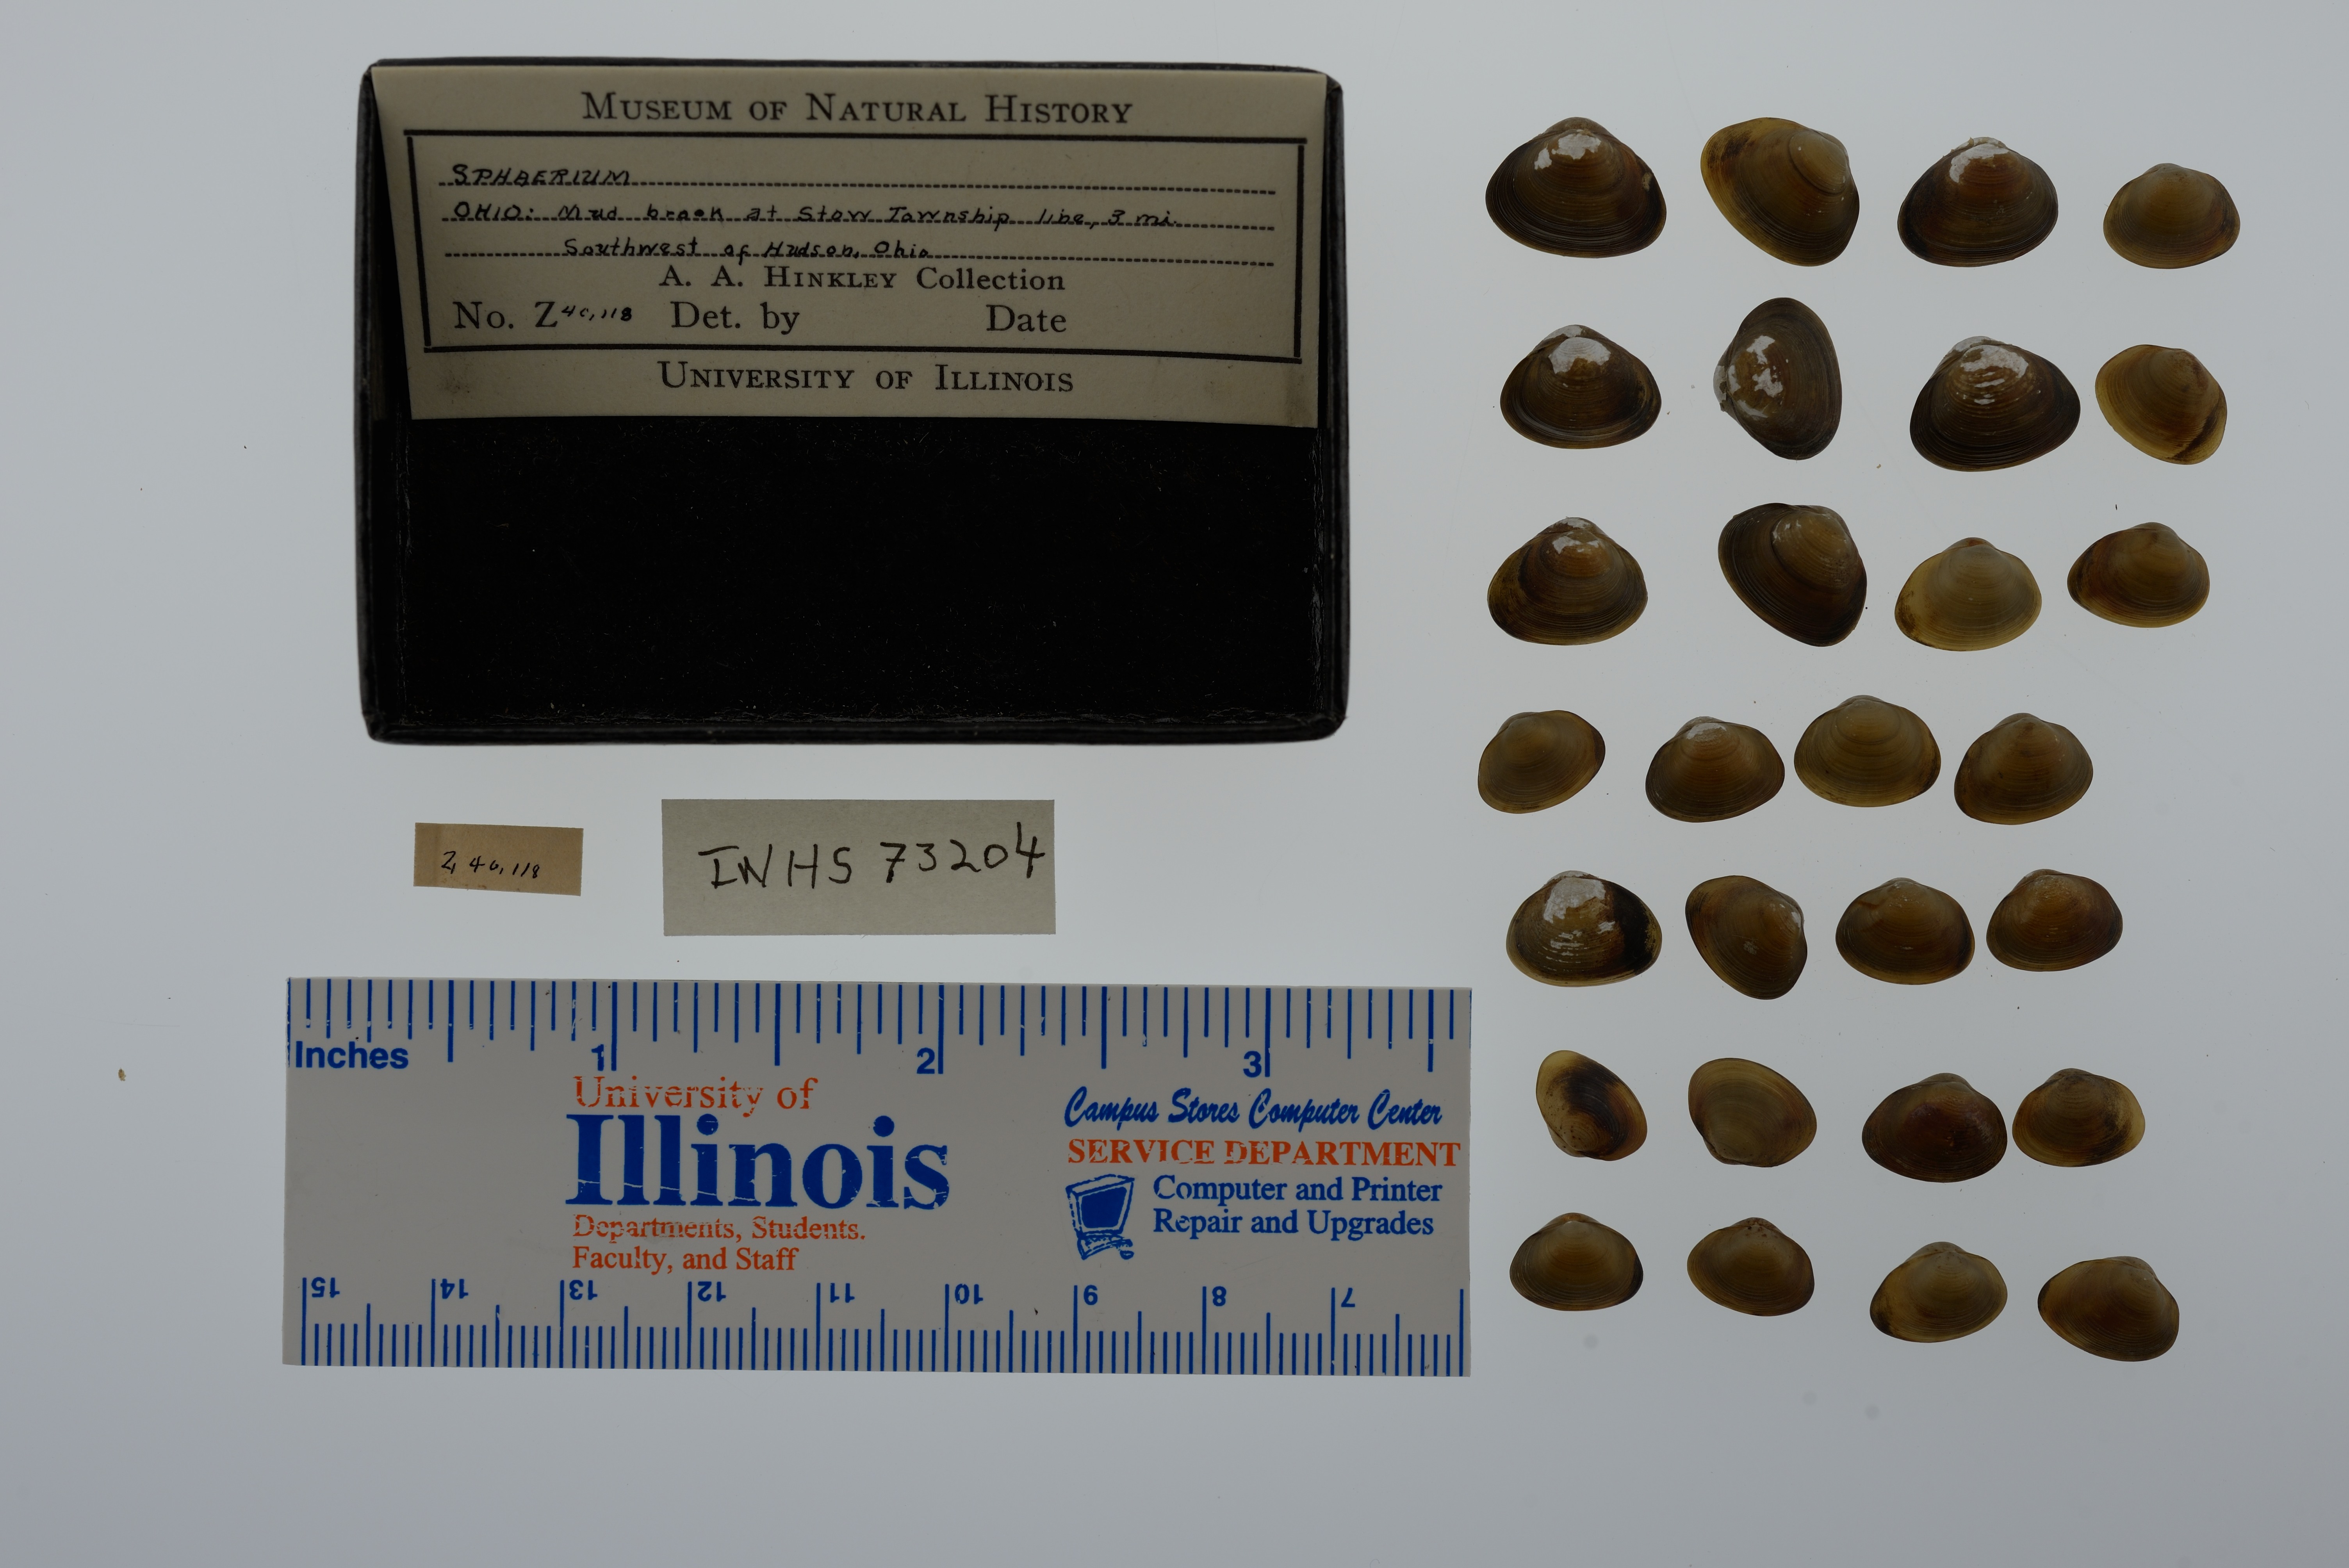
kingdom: Animalia
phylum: Mollusca
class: Bivalvia
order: Sphaeriida
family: Sphaeriidae
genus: Sphaerium
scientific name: Sphaerium
